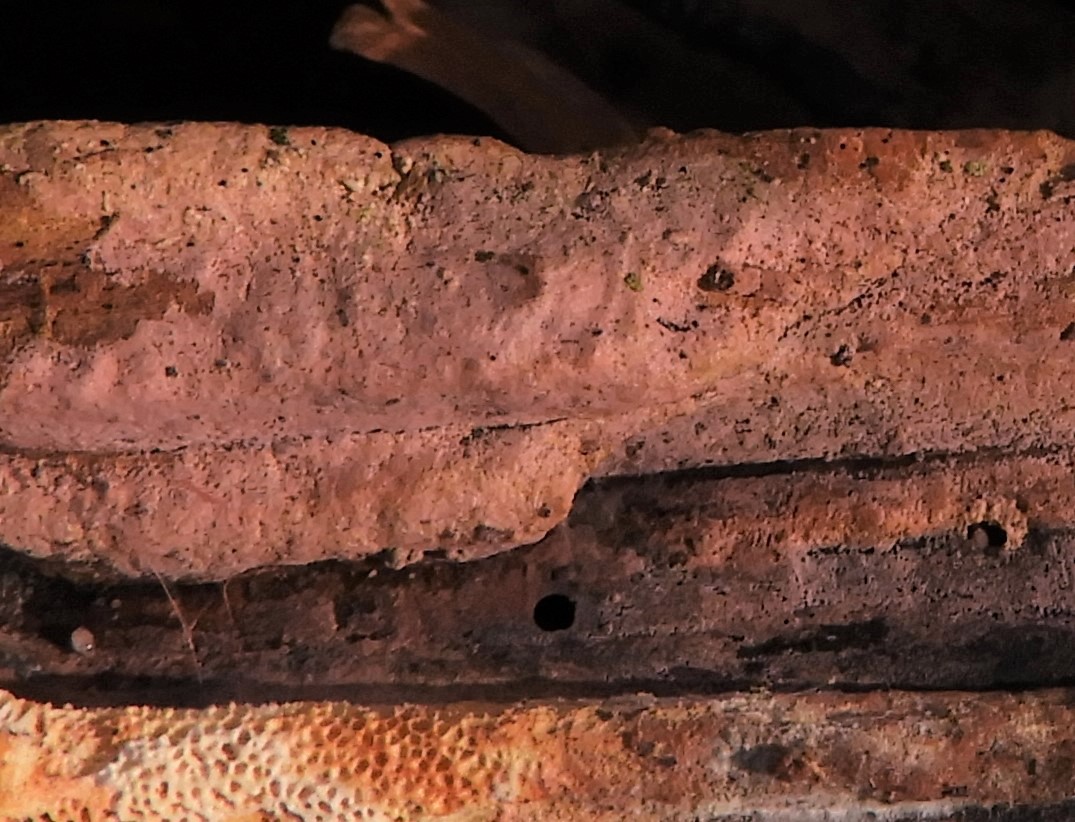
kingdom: Fungi
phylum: Basidiomycota
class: Agaricomycetes
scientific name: Agaricomycetes
